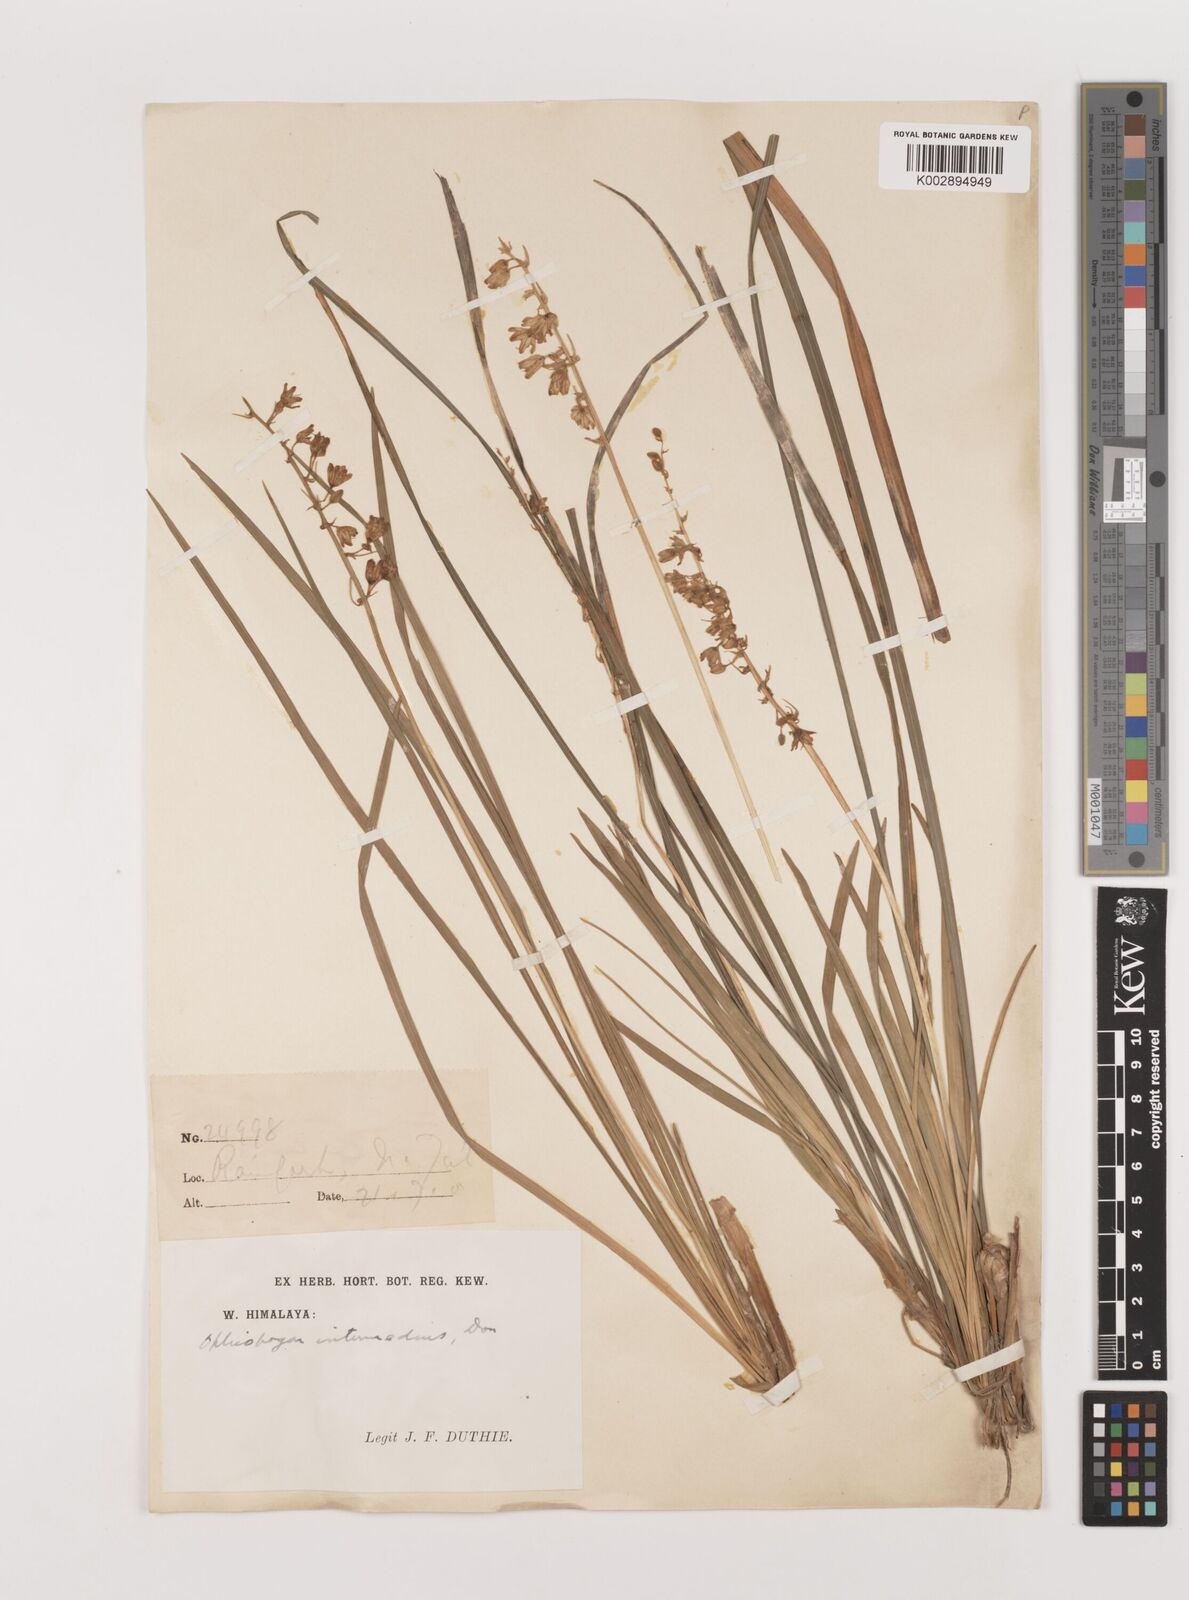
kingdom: Plantae
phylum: Tracheophyta
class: Liliopsida
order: Asparagales
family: Asparagaceae
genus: Ophiopogon
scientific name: Ophiopogon intermedius
